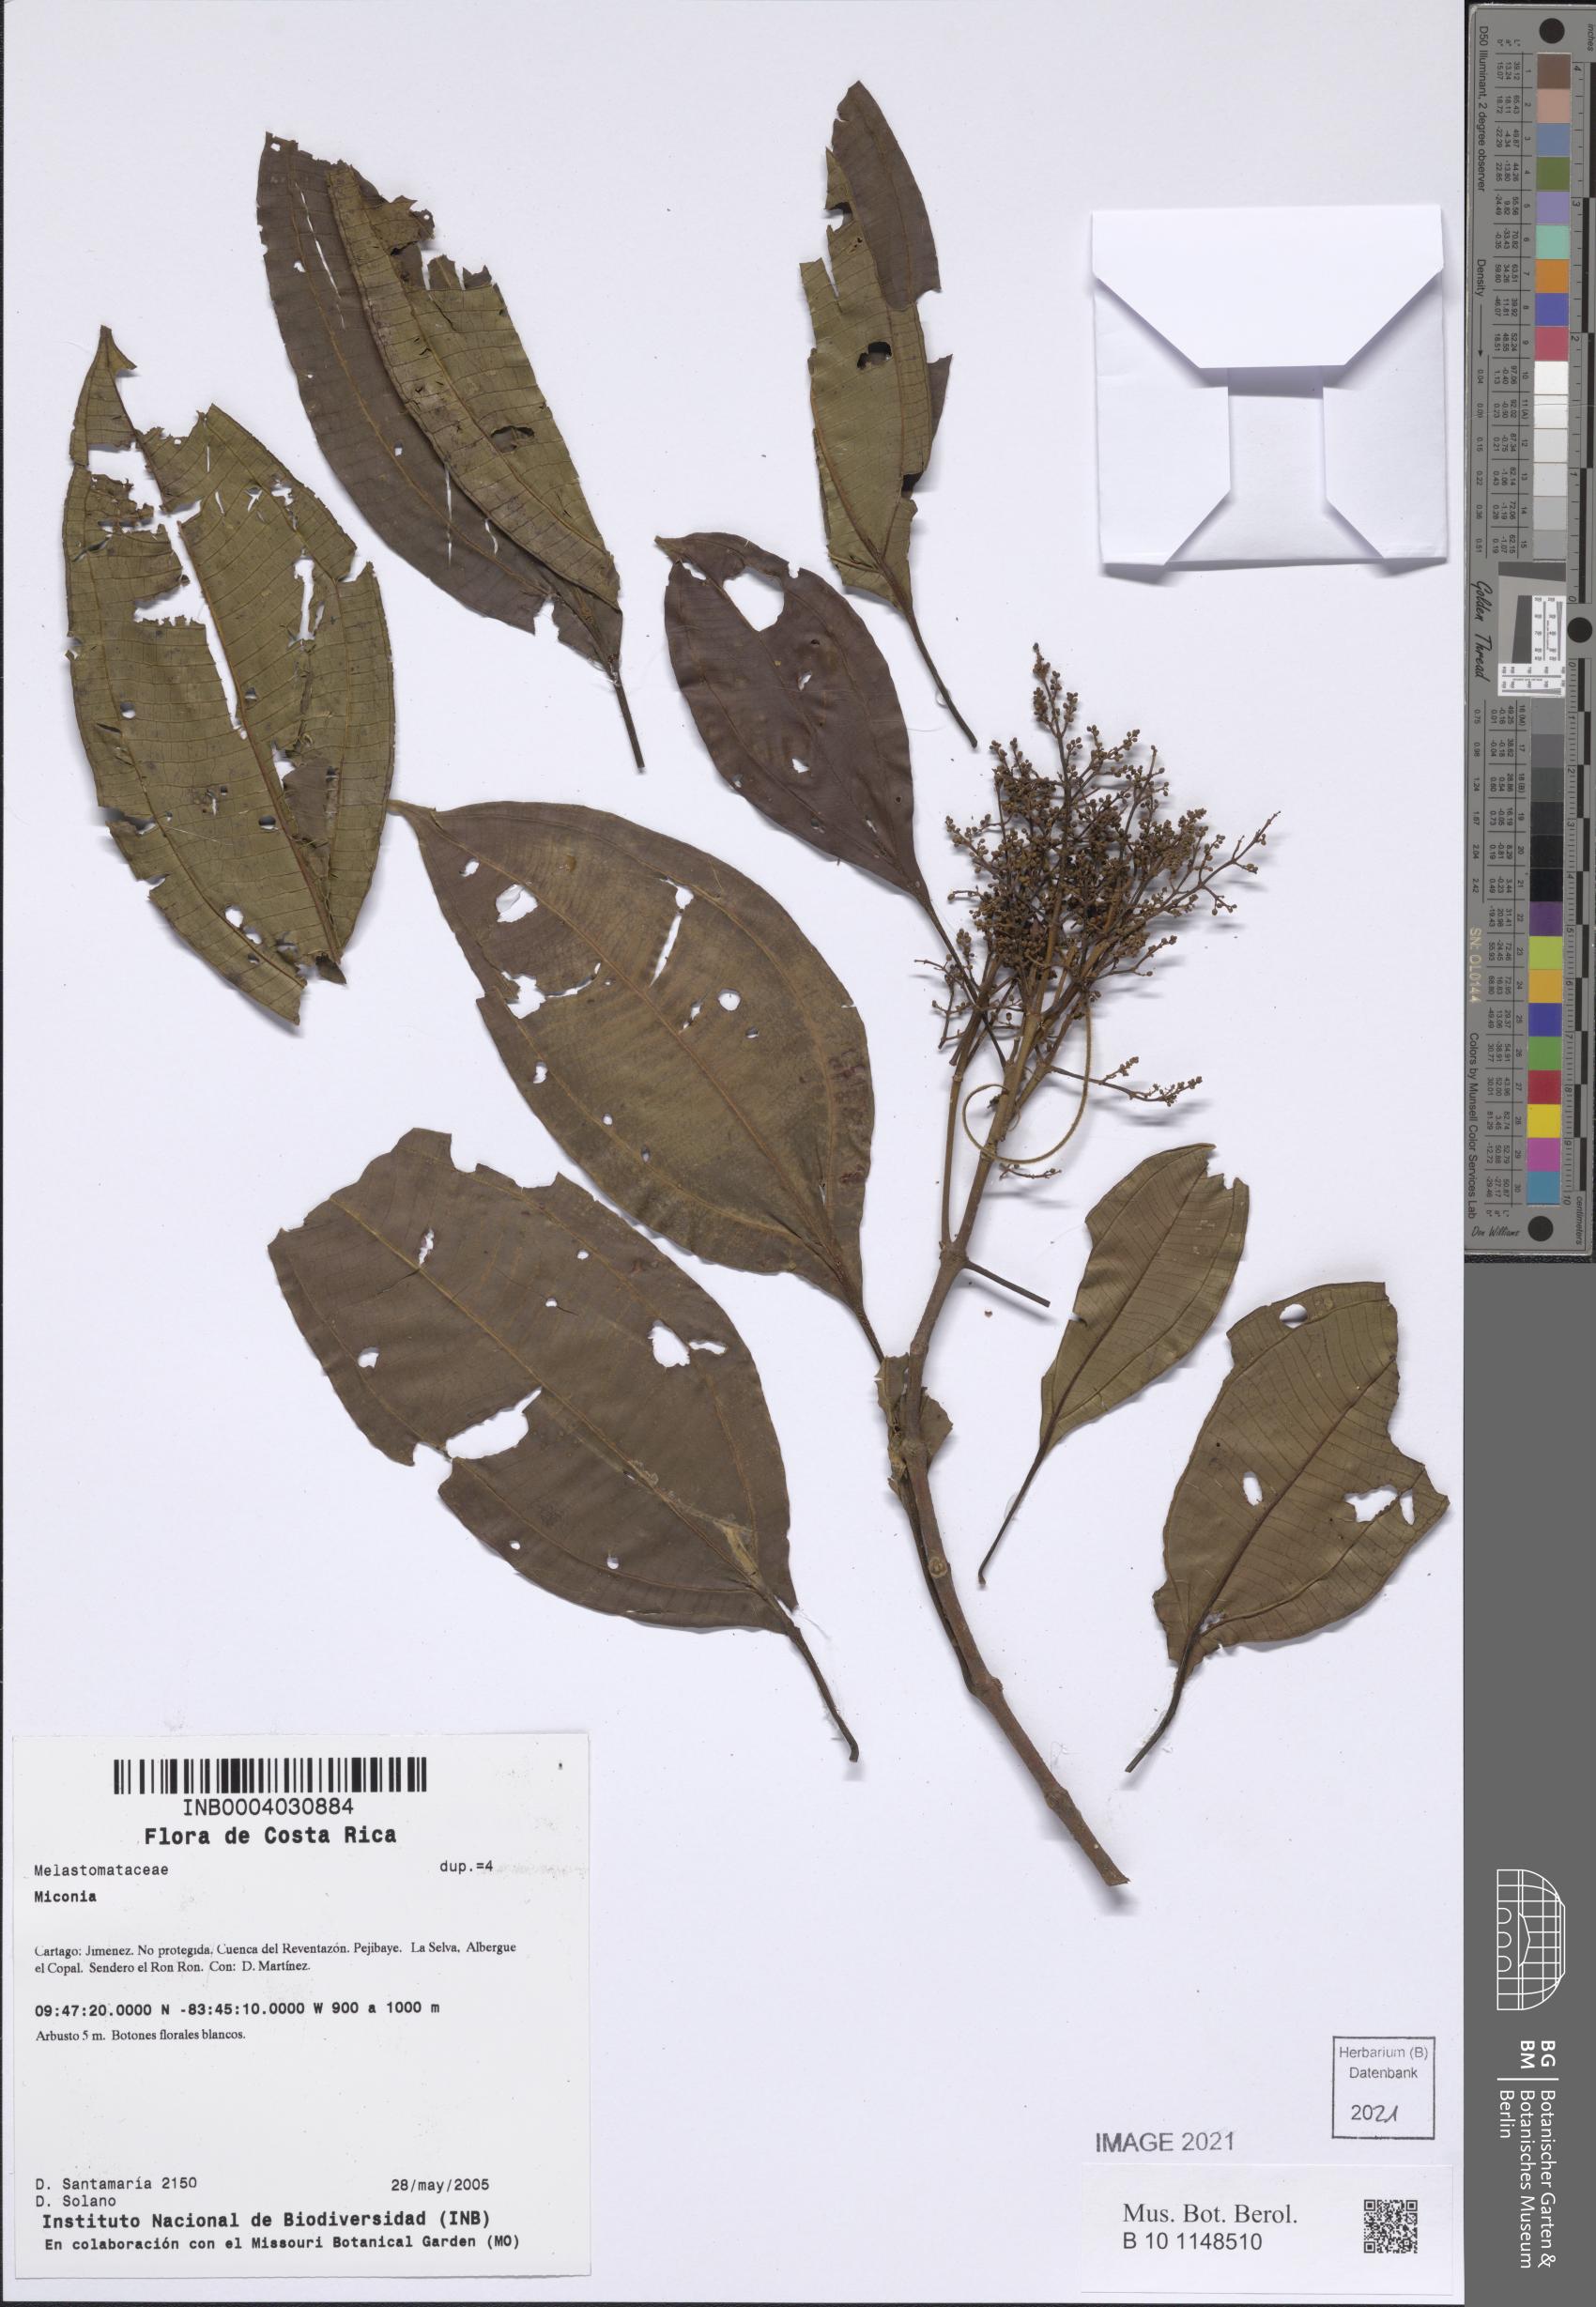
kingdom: Plantae
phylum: Tracheophyta
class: Magnoliopsida
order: Myrtales
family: Melastomataceae
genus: Miconia
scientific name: Miconia
